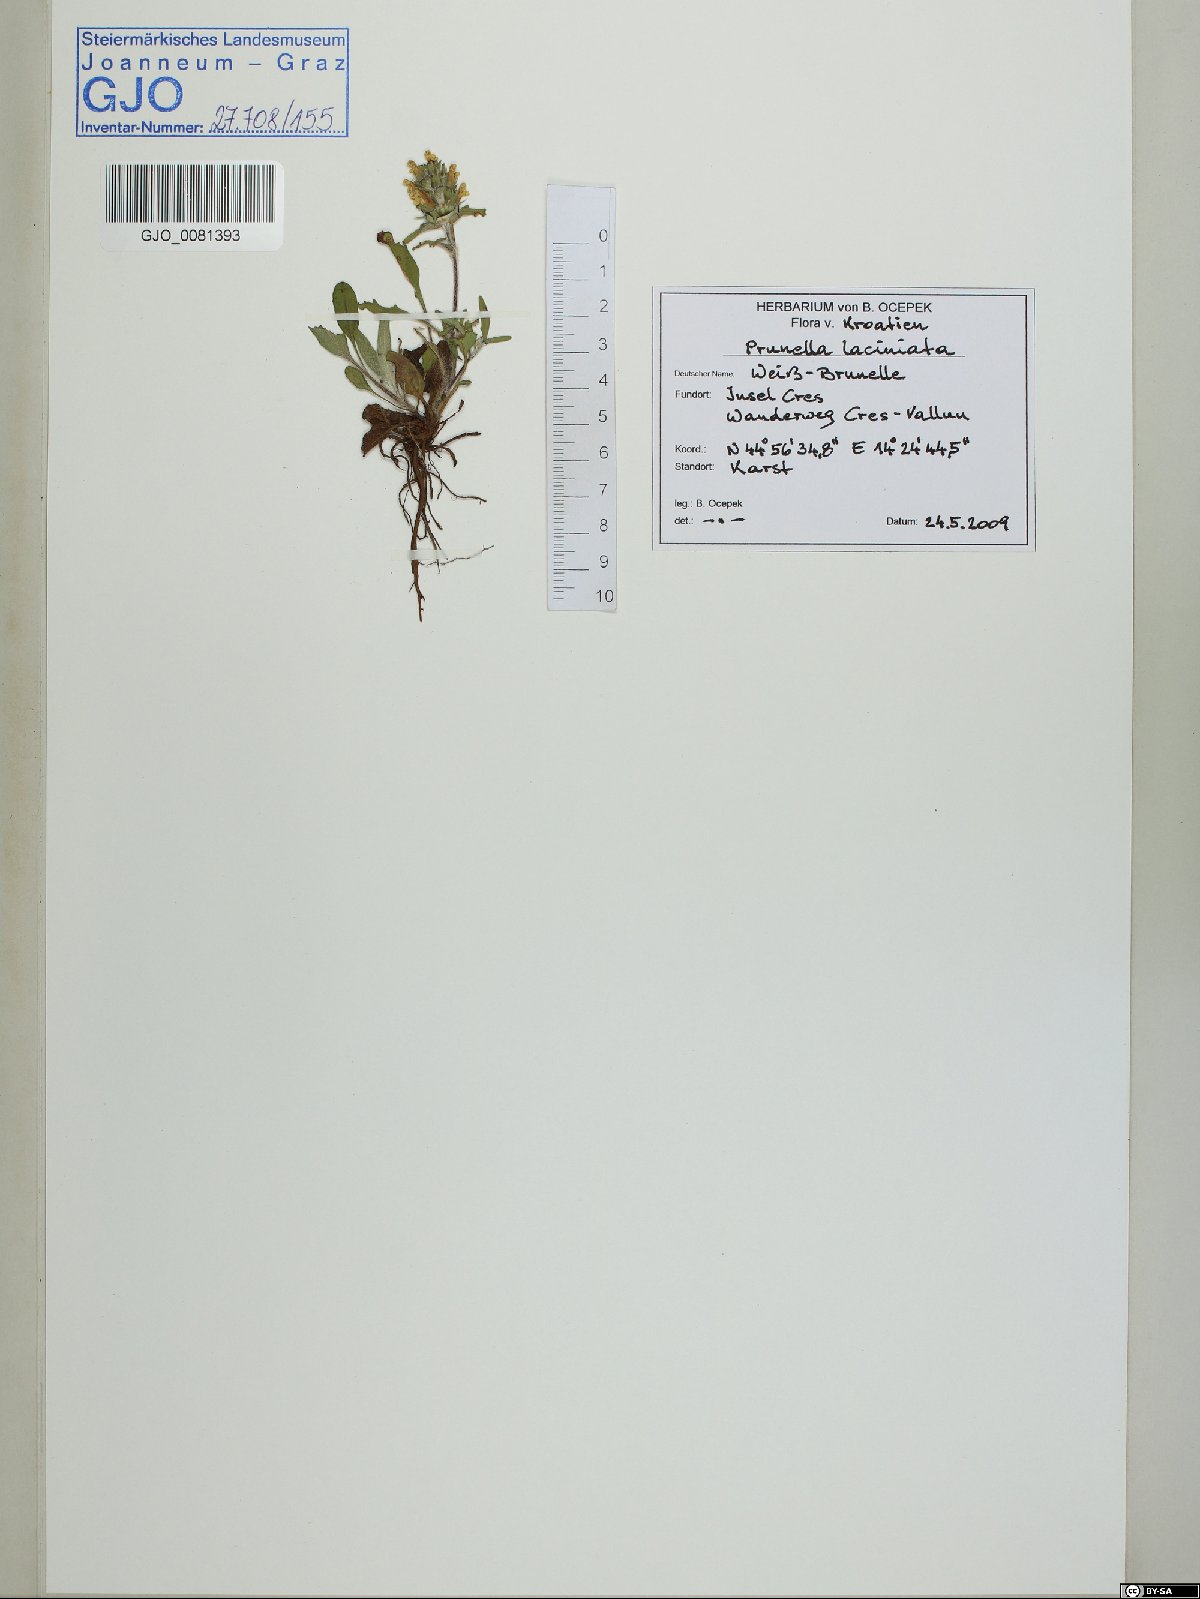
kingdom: Plantae
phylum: Tracheophyta
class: Magnoliopsida
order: Lamiales
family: Lamiaceae
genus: Prunella
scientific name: Prunella laciniata
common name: Cut-leaved selfheal
